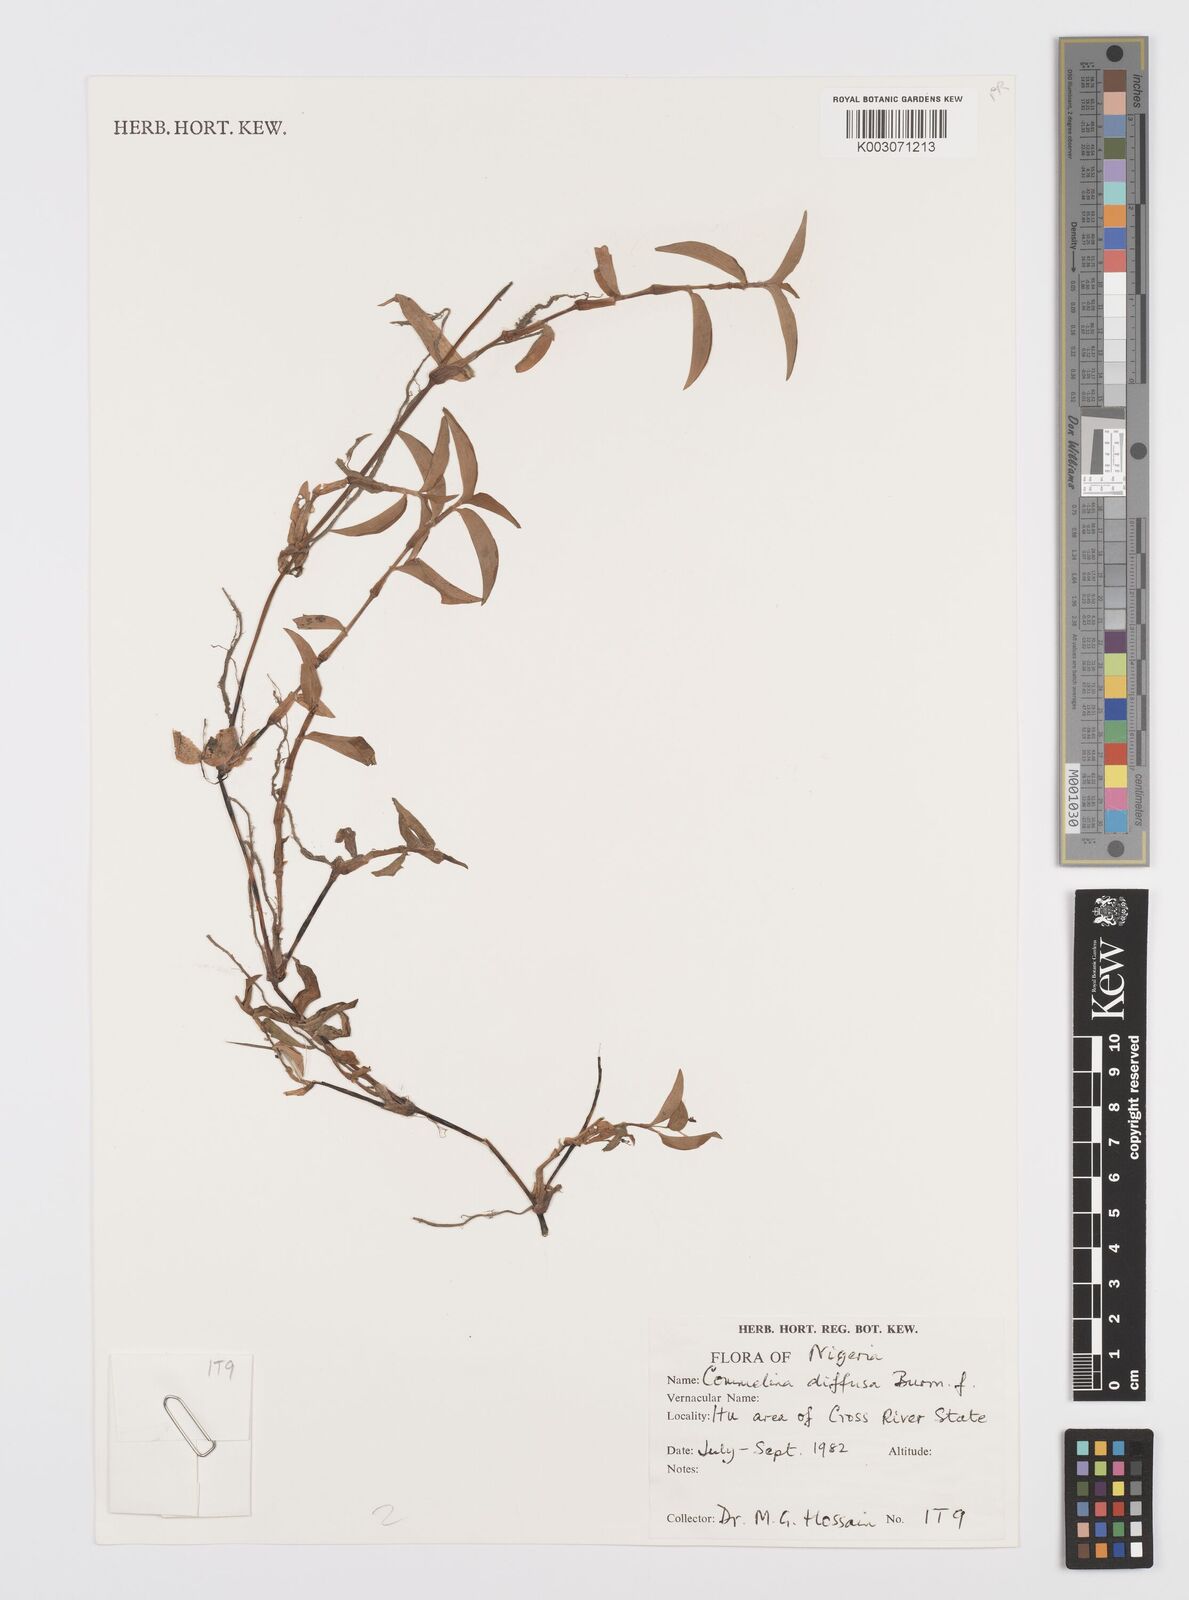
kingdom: Plantae
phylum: Tracheophyta
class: Liliopsida
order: Commelinales
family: Commelinaceae
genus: Commelina
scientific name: Commelina diffusa
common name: Climbing dayflower
